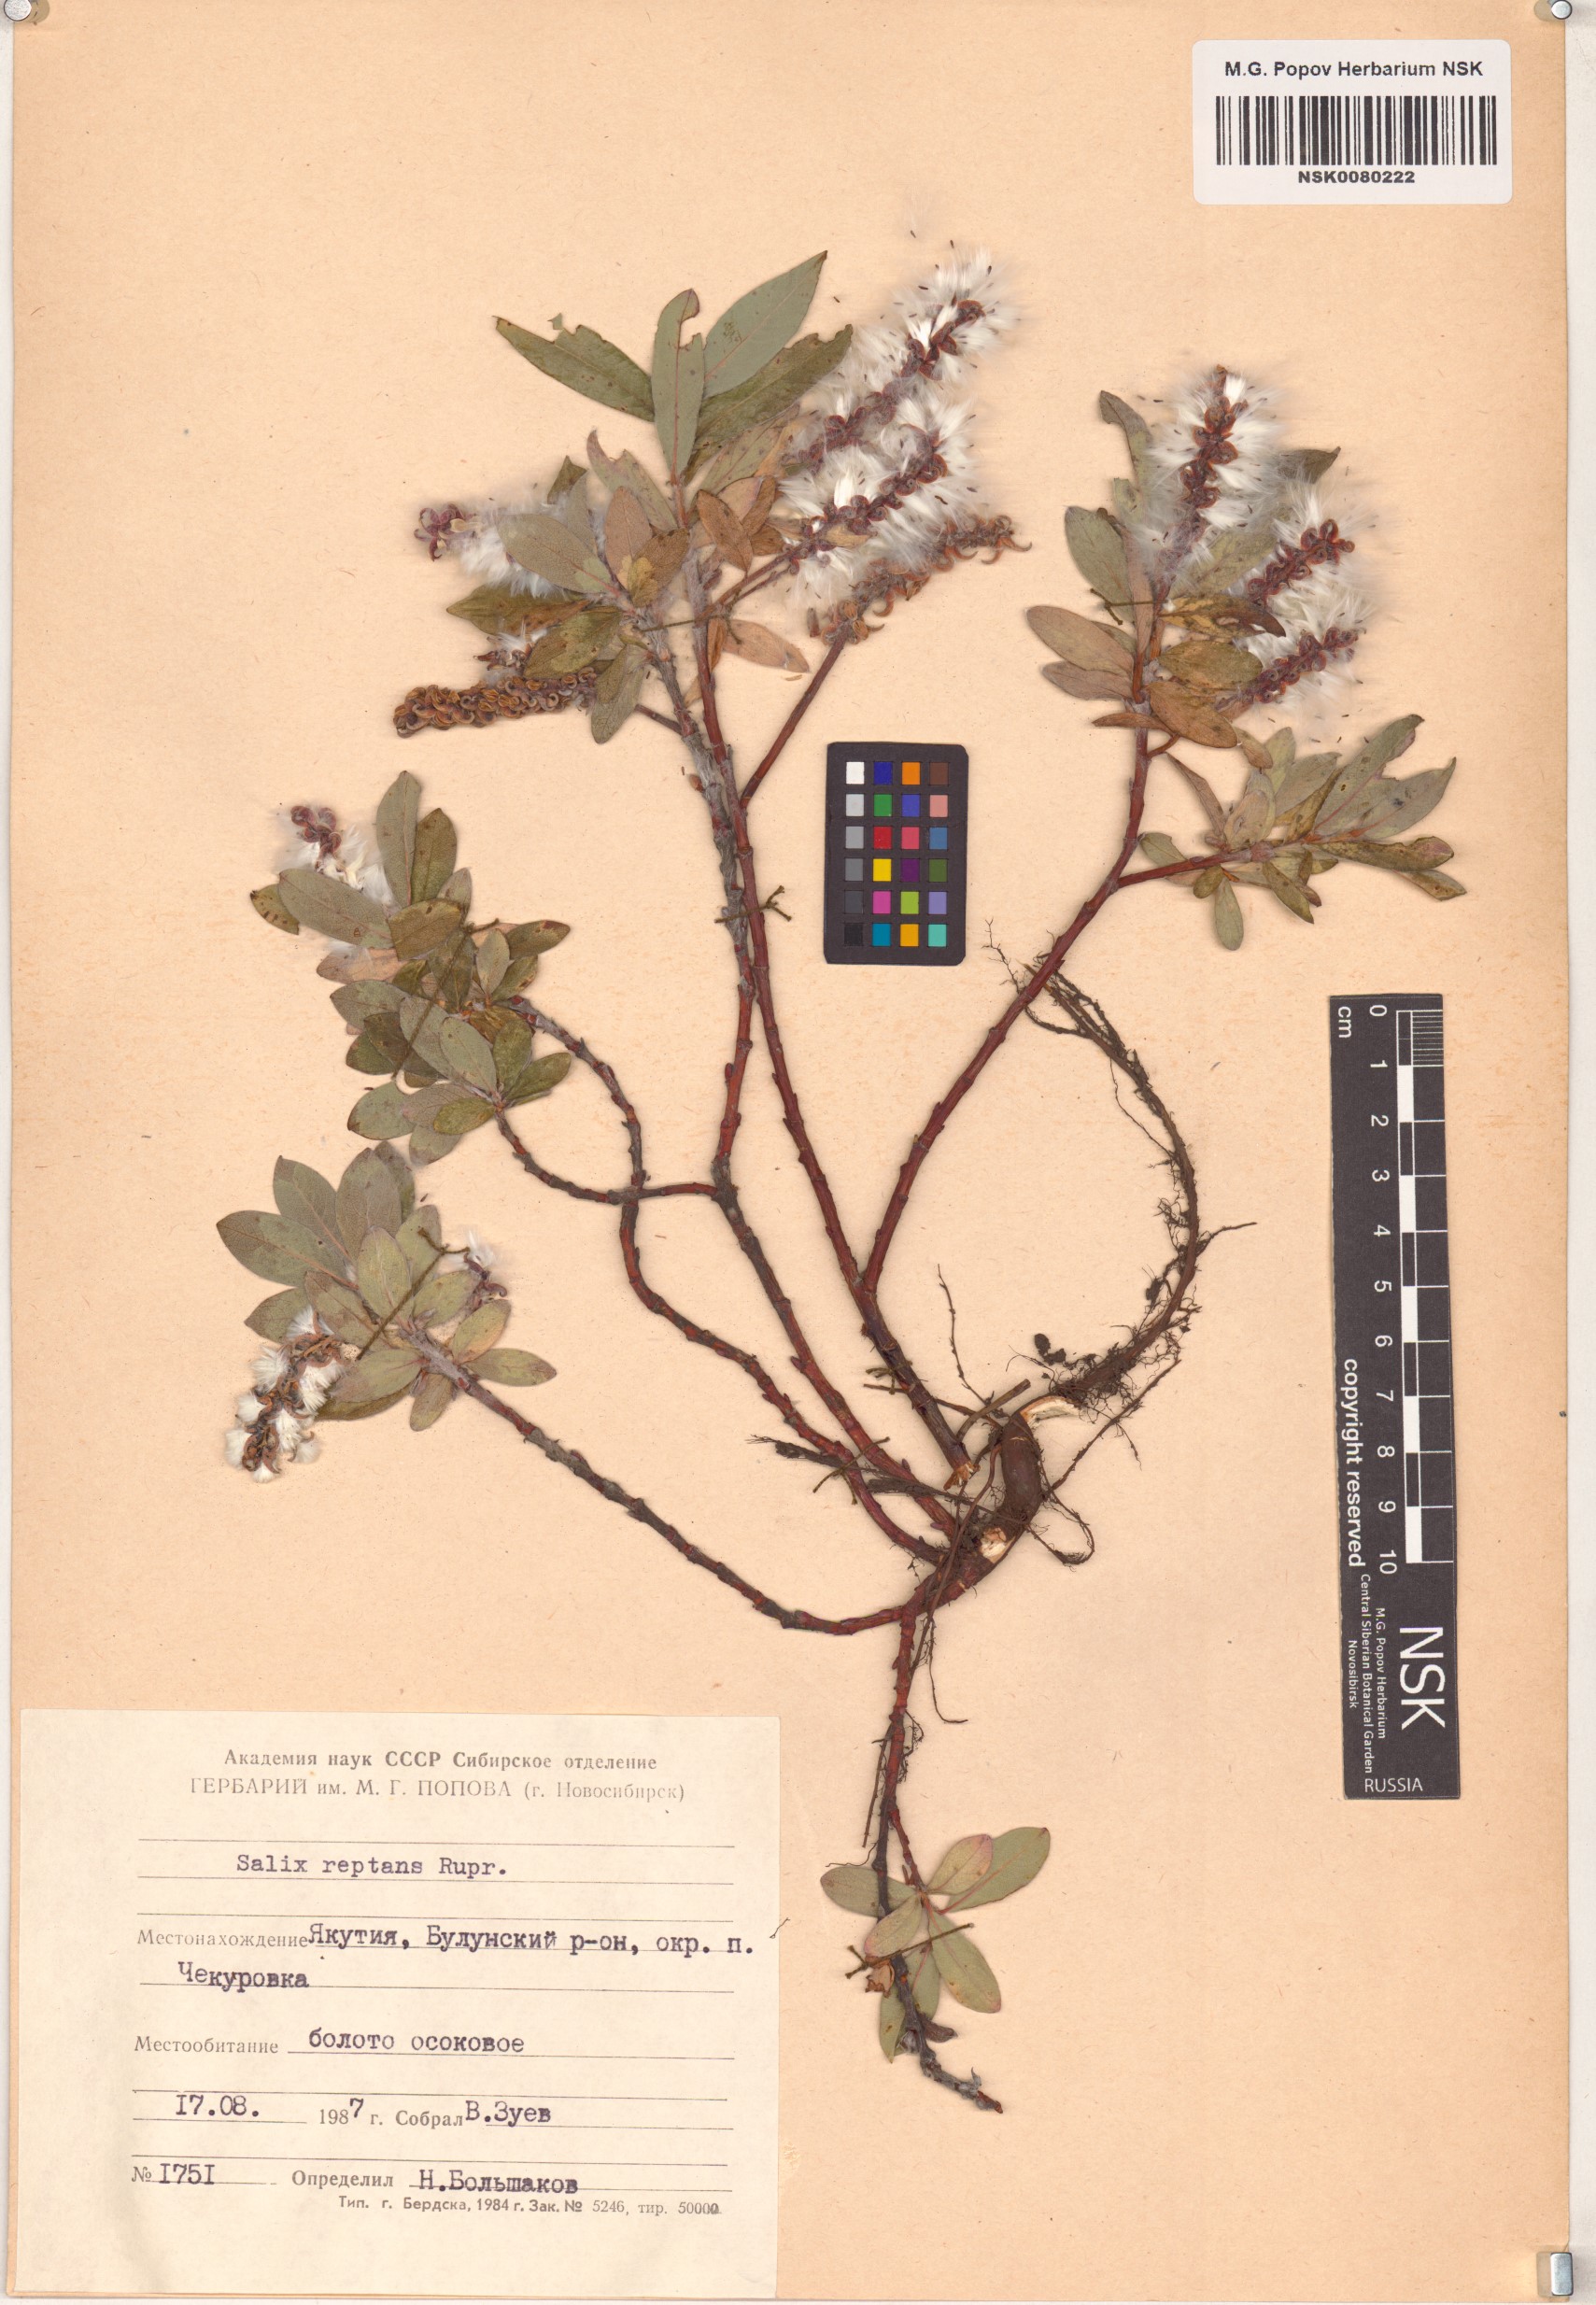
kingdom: Plantae
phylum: Tracheophyta
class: Magnoliopsida
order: Malpighiales
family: Salicaceae
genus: Salix
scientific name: Salix reptans
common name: Arctic creeping willow
